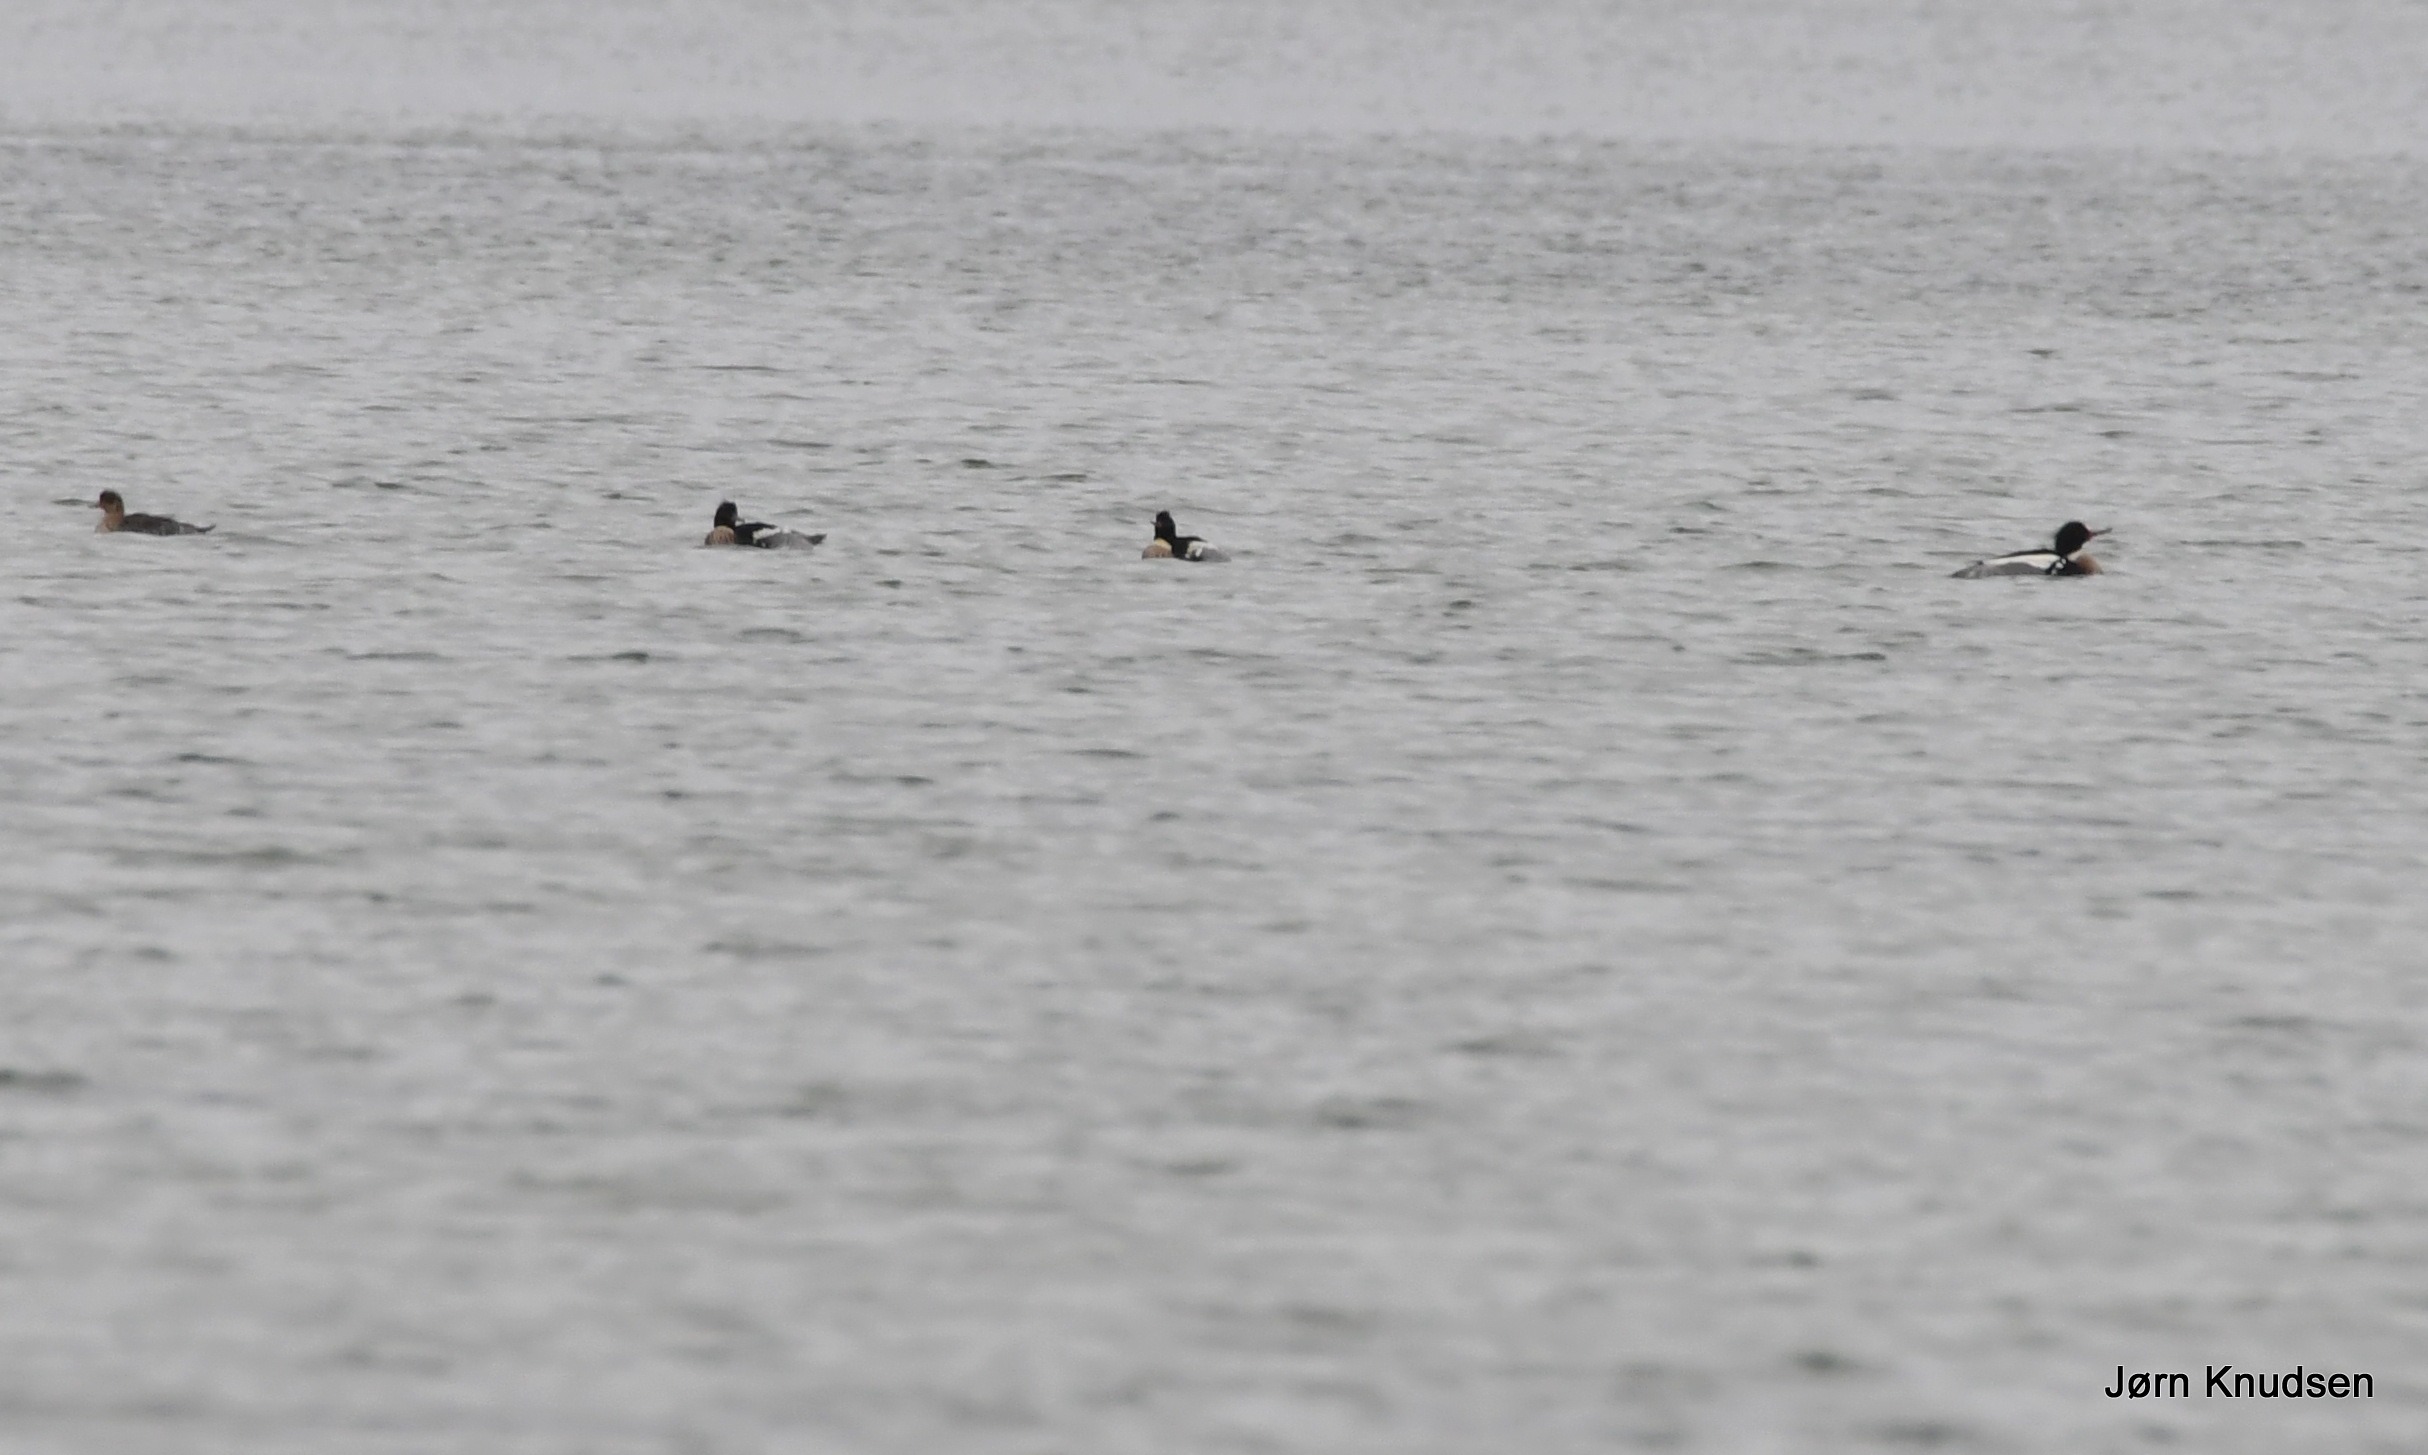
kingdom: Animalia
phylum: Chordata
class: Aves
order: Anseriformes
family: Anatidae
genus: Mergus
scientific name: Mergus serrator
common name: Toppet skallesluger
